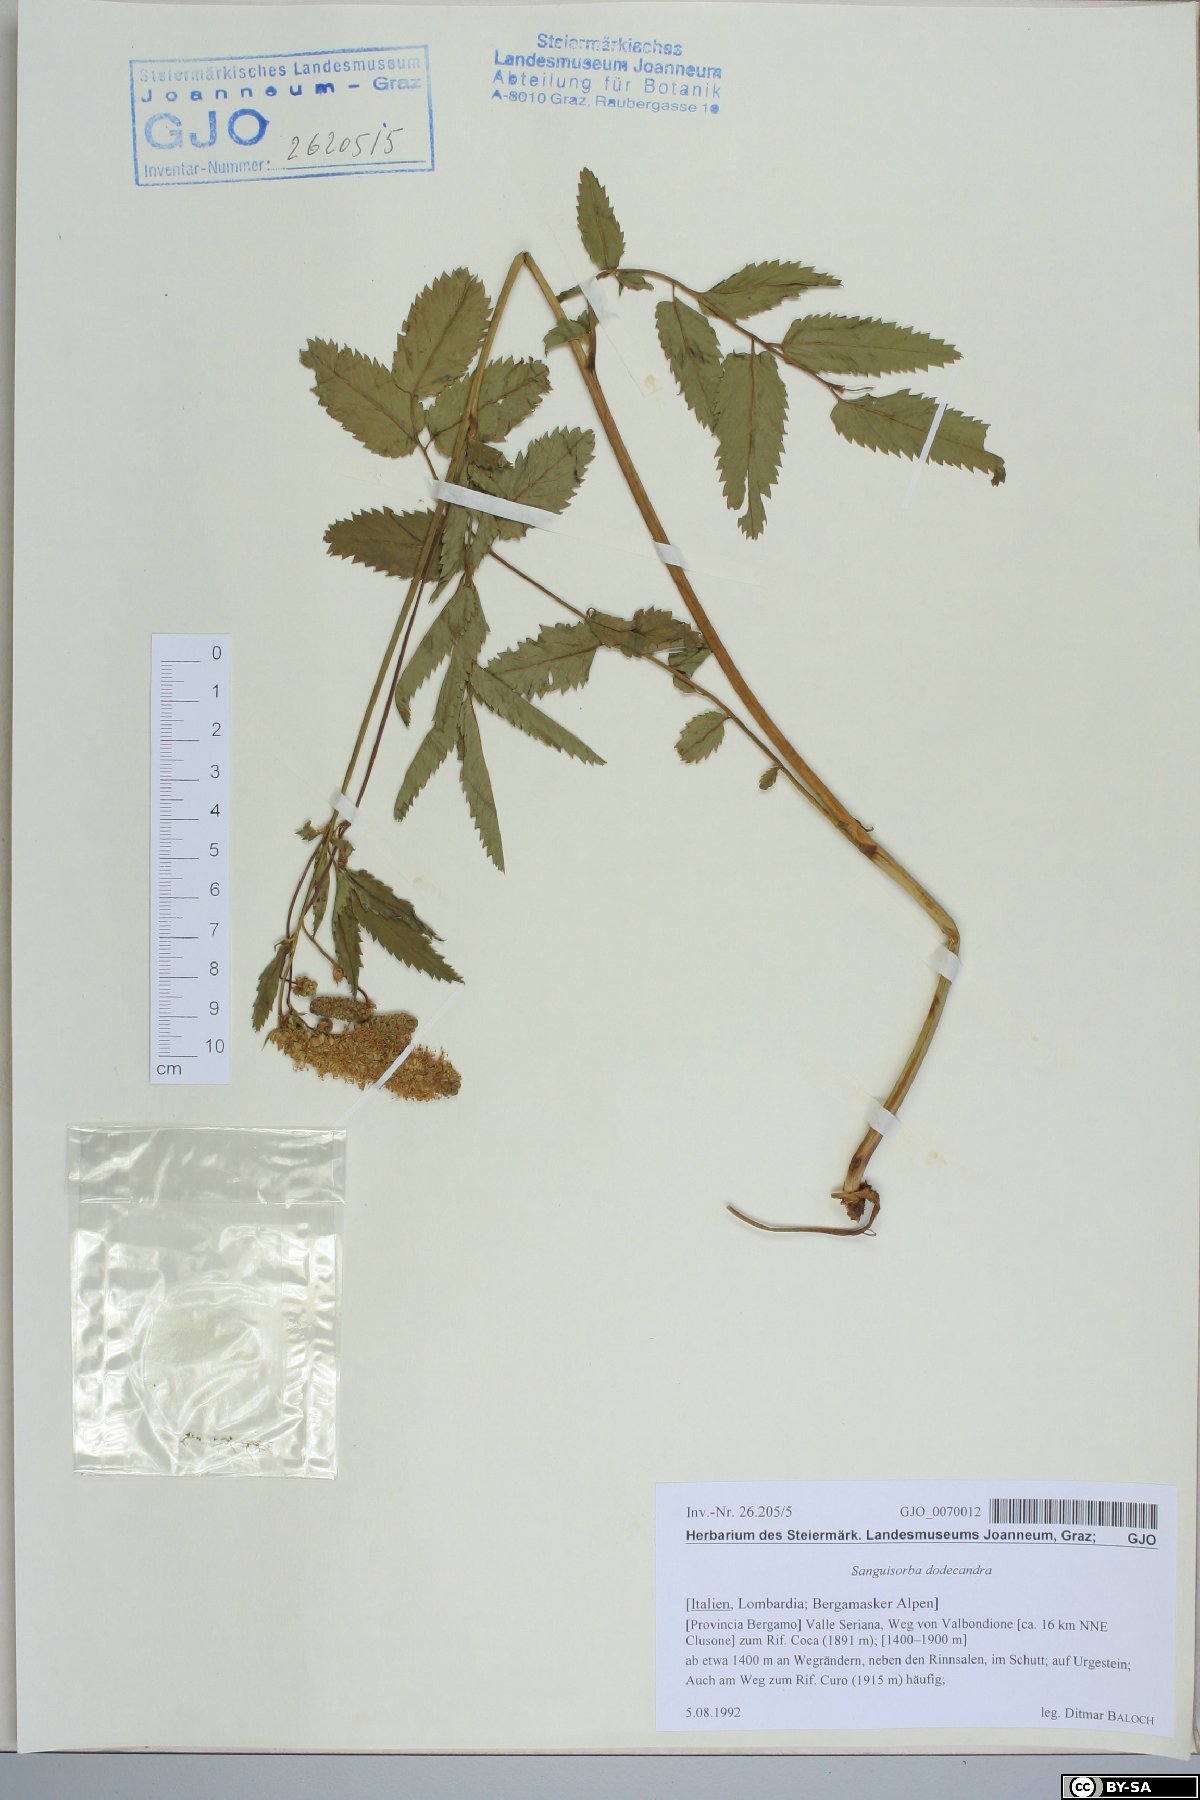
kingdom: Plantae
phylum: Tracheophyta
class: Magnoliopsida
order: Rosales
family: Rosaceae
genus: Poterium
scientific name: Poterium dodecandrum
